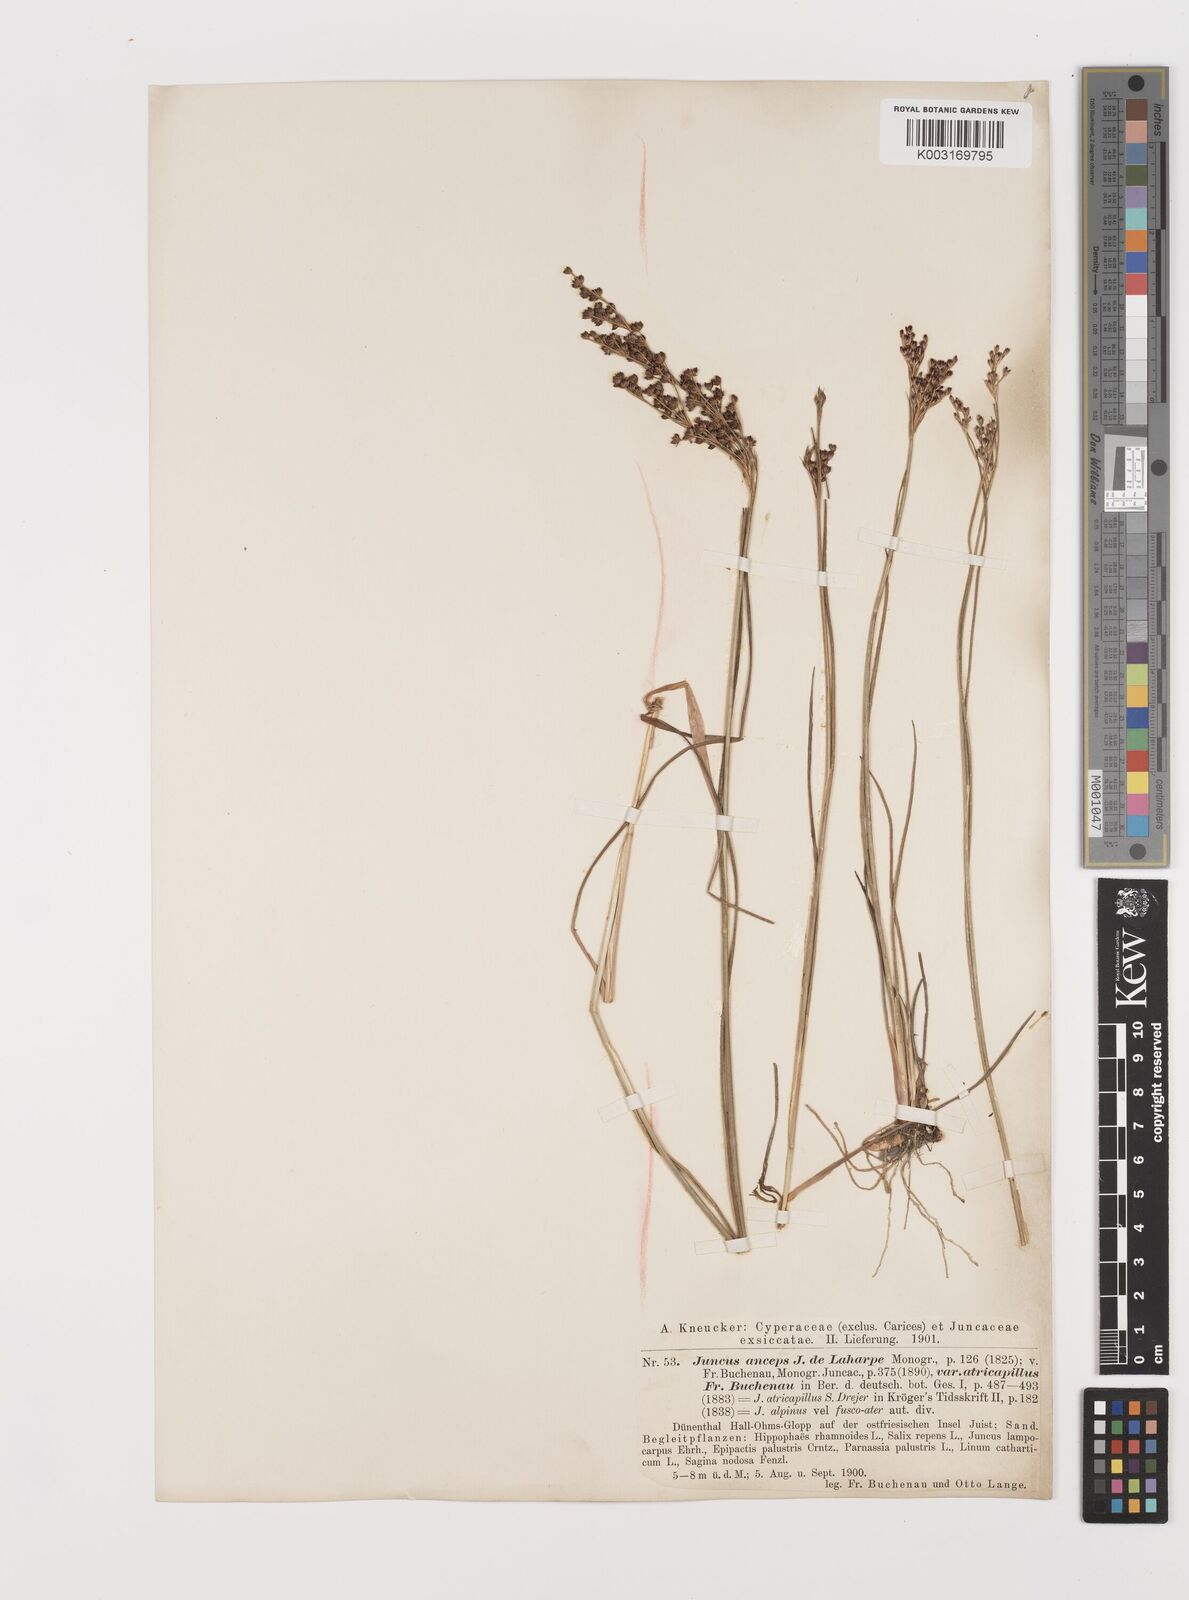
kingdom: Plantae
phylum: Tracheophyta
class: Liliopsida
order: Poales
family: Juncaceae
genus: Juncus
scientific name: Juncus anceps
